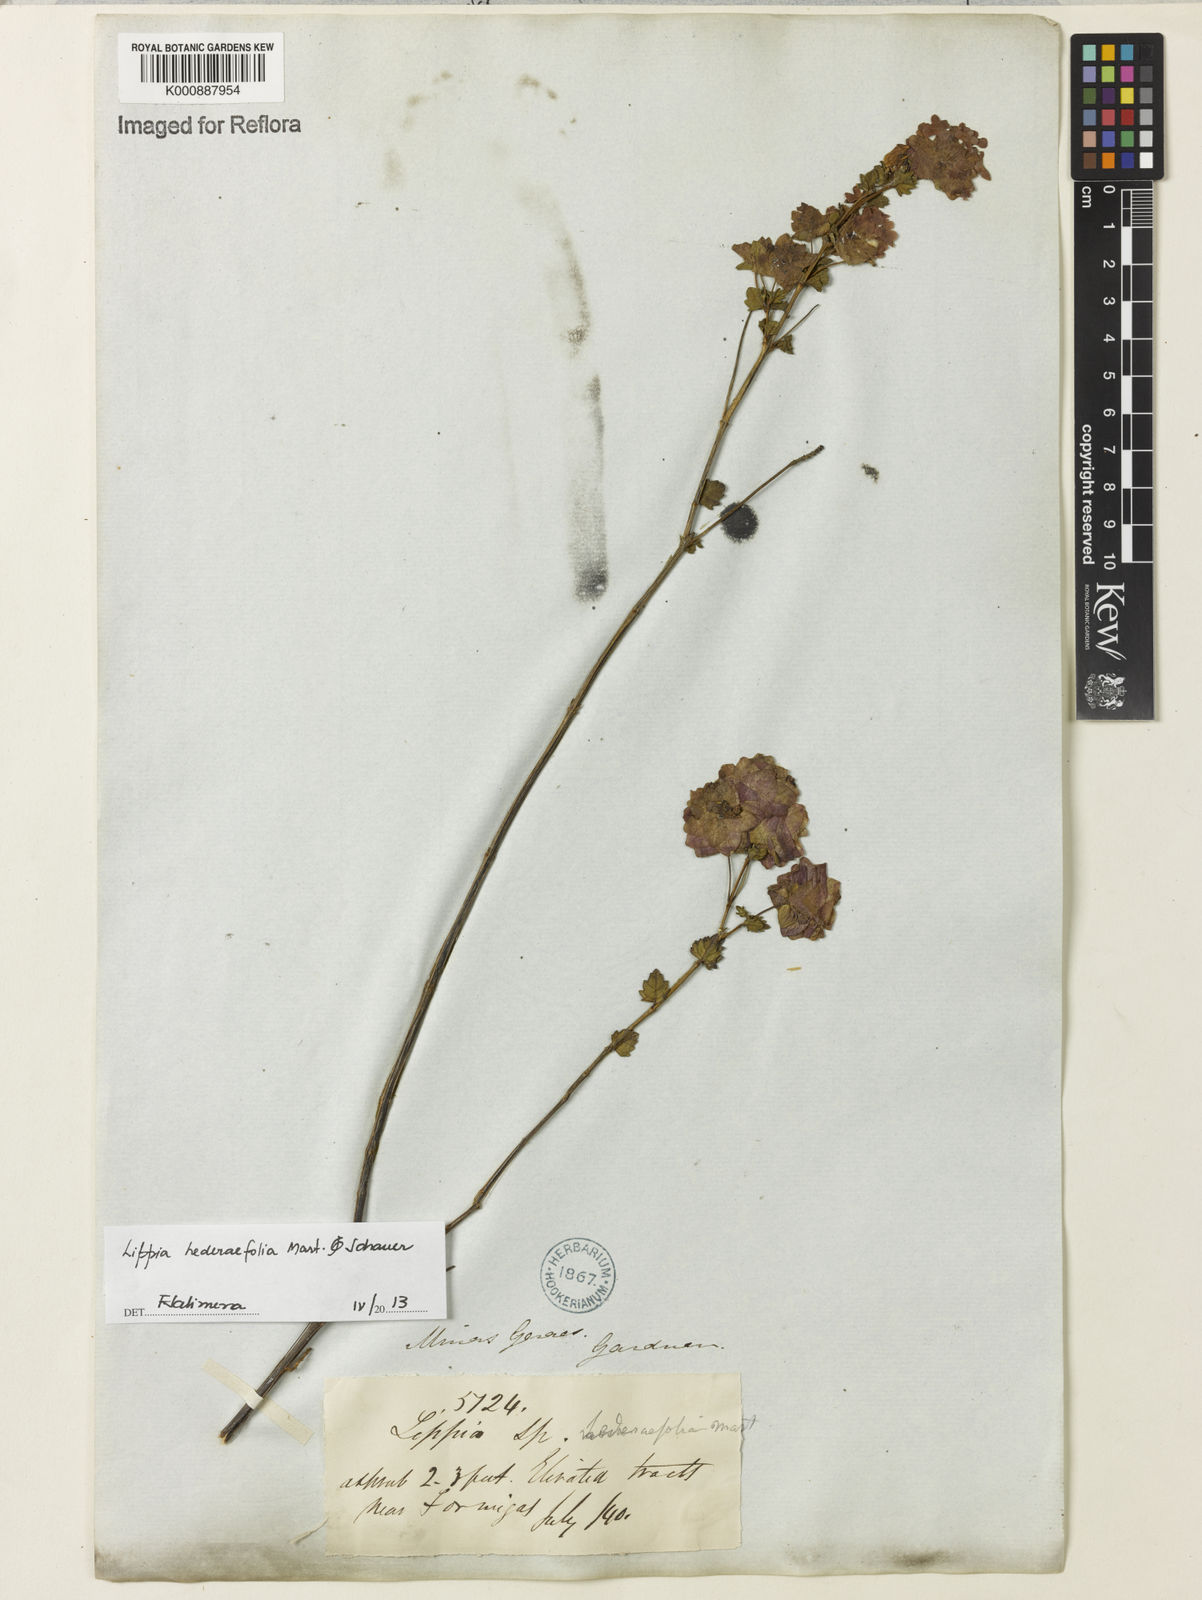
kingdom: Plantae
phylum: Tracheophyta
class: Magnoliopsida
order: Lamiales
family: Verbenaceae
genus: Lippia
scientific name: Lippia hederifolia
